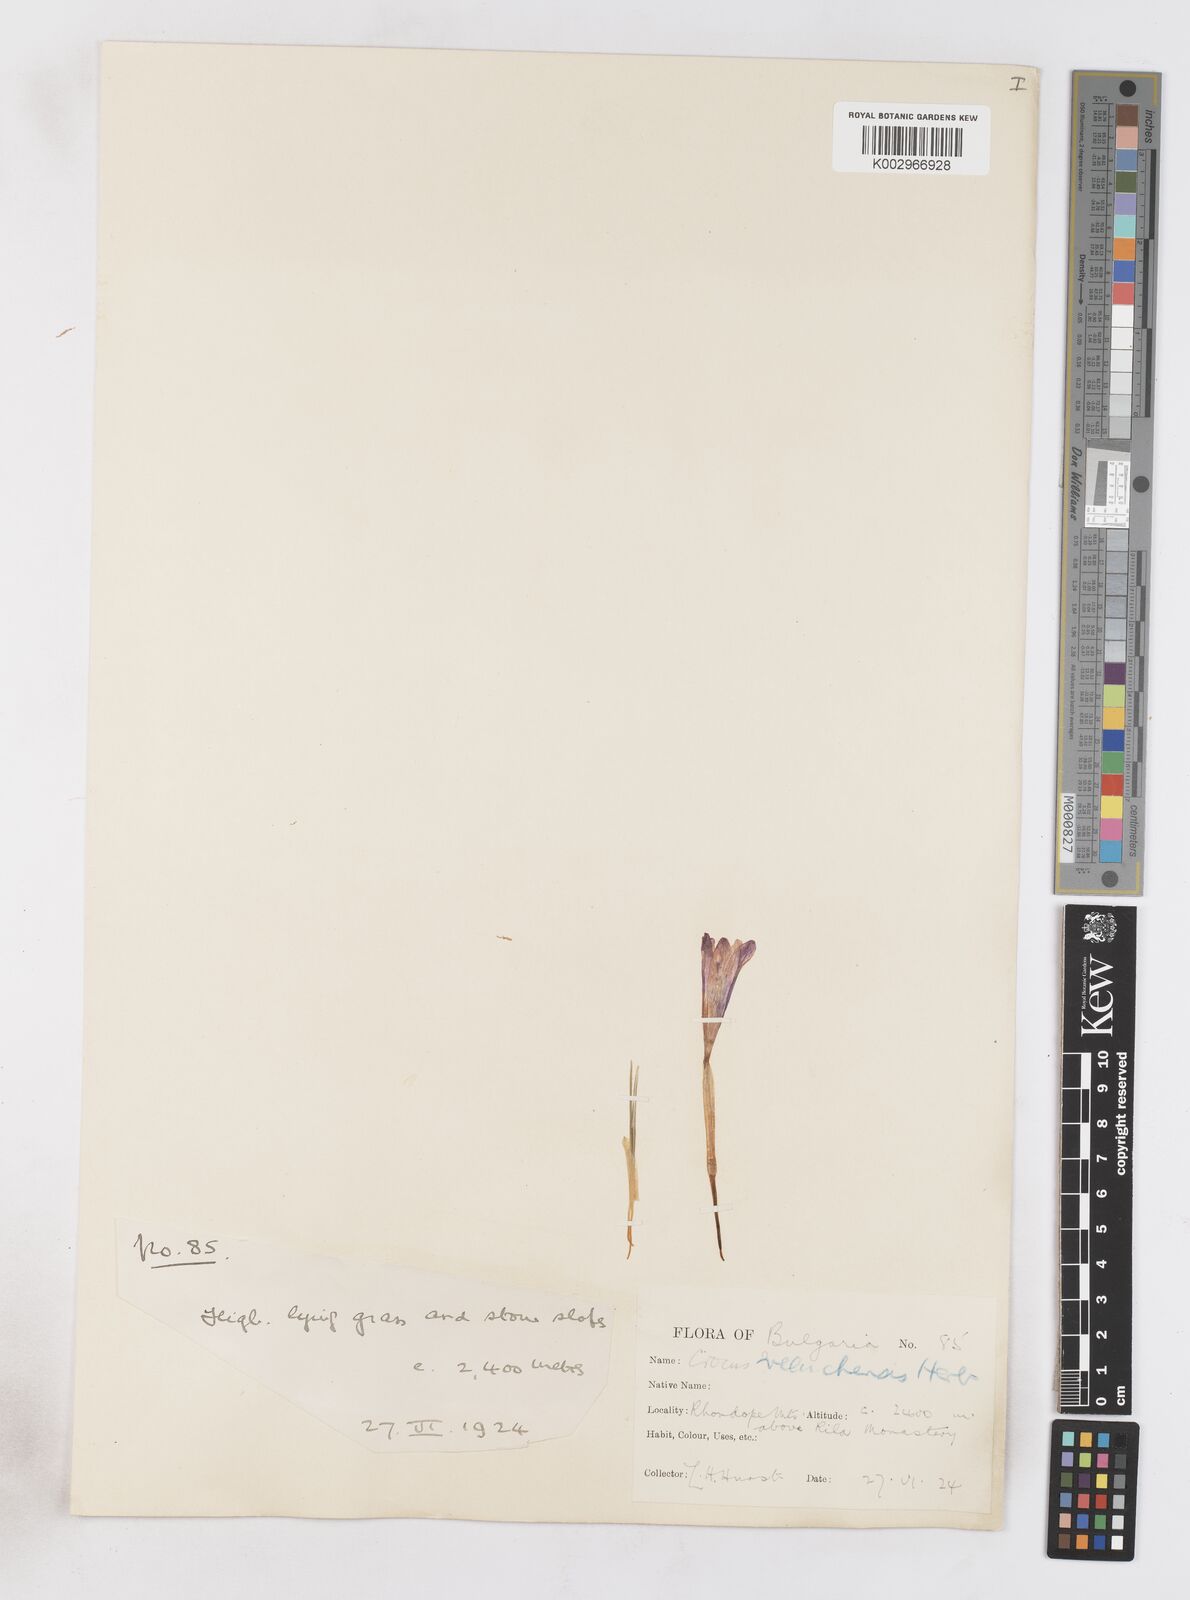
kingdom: Plantae
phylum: Tracheophyta
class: Liliopsida
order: Asparagales
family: Iridaceae
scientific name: Iridaceae
